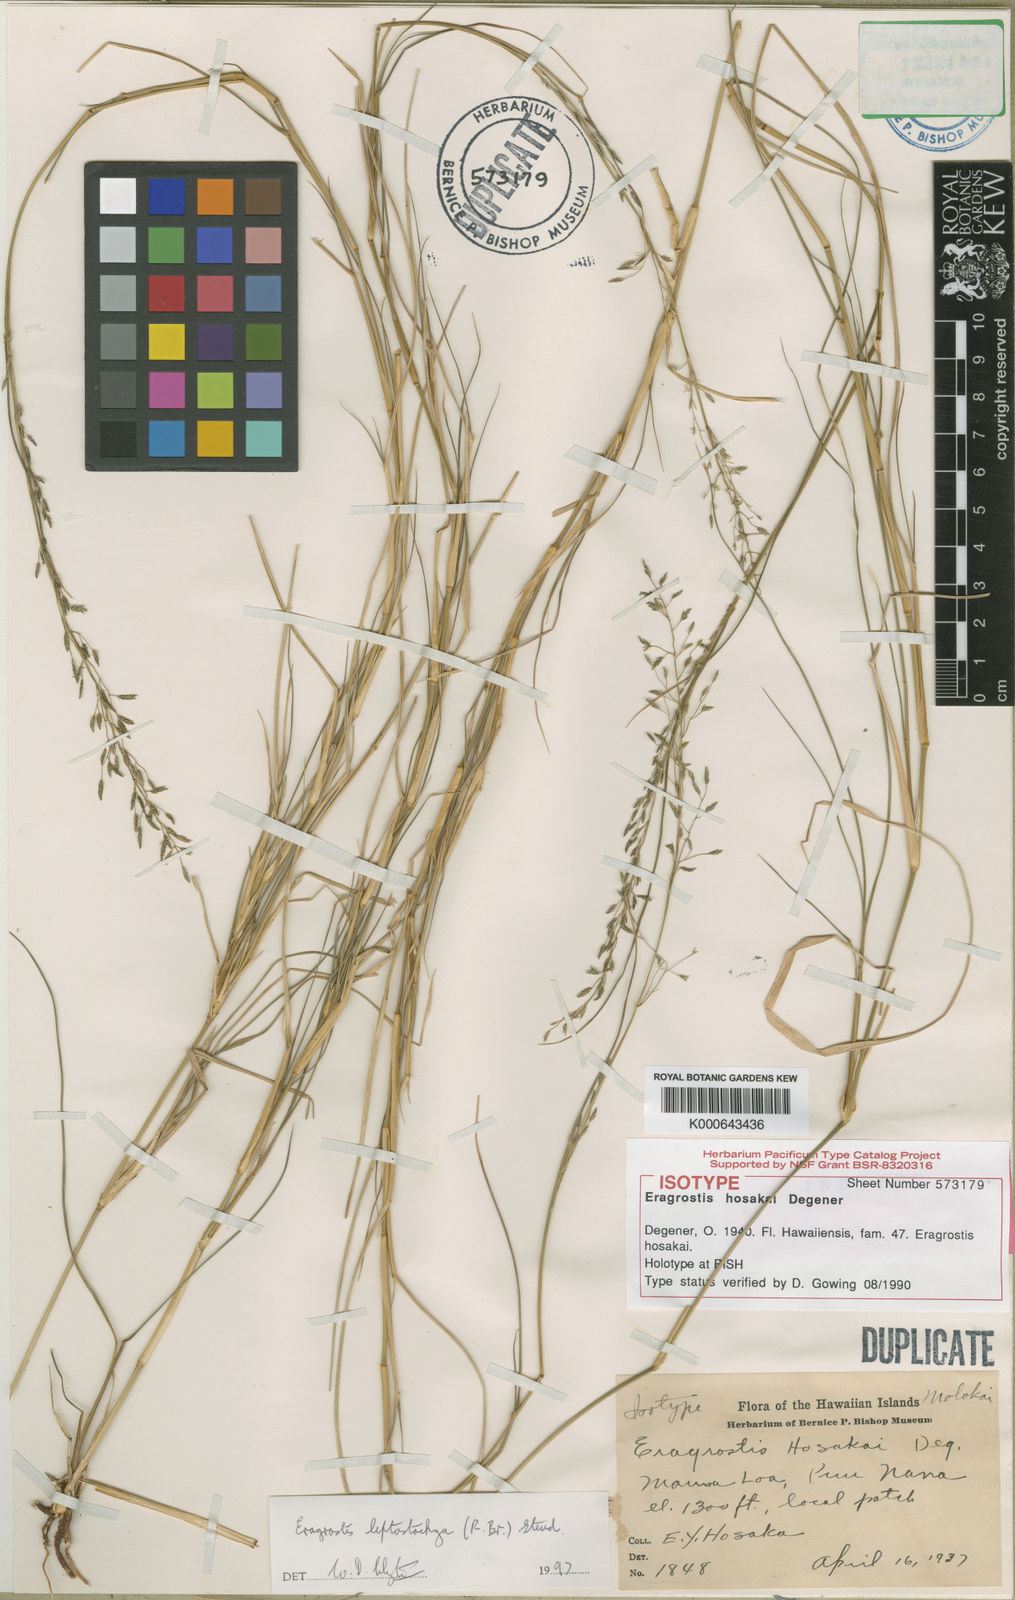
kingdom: Plantae
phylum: Tracheophyta
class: Liliopsida
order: Poales
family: Poaceae
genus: Eragrostis
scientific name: Eragrostis leptostachya
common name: Australian lovegrass
